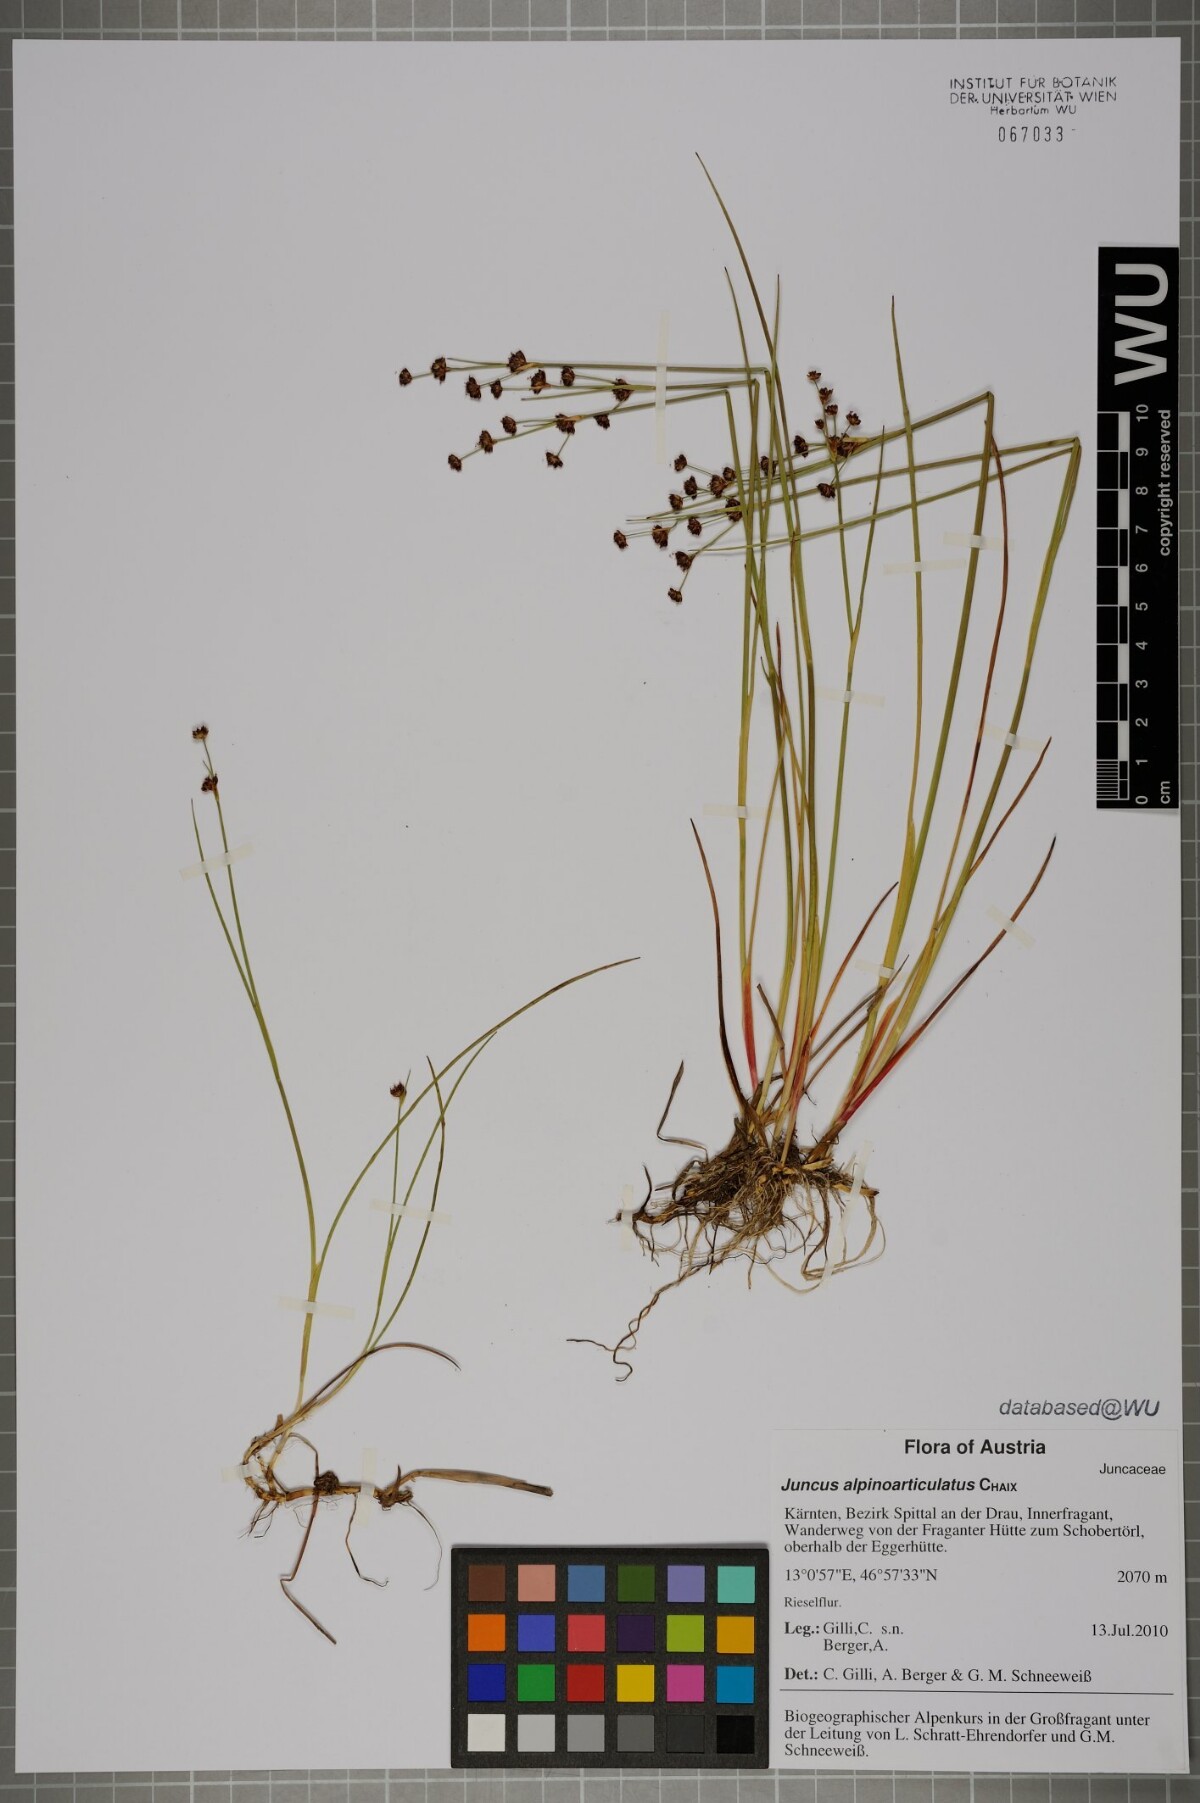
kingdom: Plantae
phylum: Tracheophyta
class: Liliopsida
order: Poales
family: Juncaceae
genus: Juncus
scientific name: Juncus alpinoarticulatus
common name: Alpine rush
